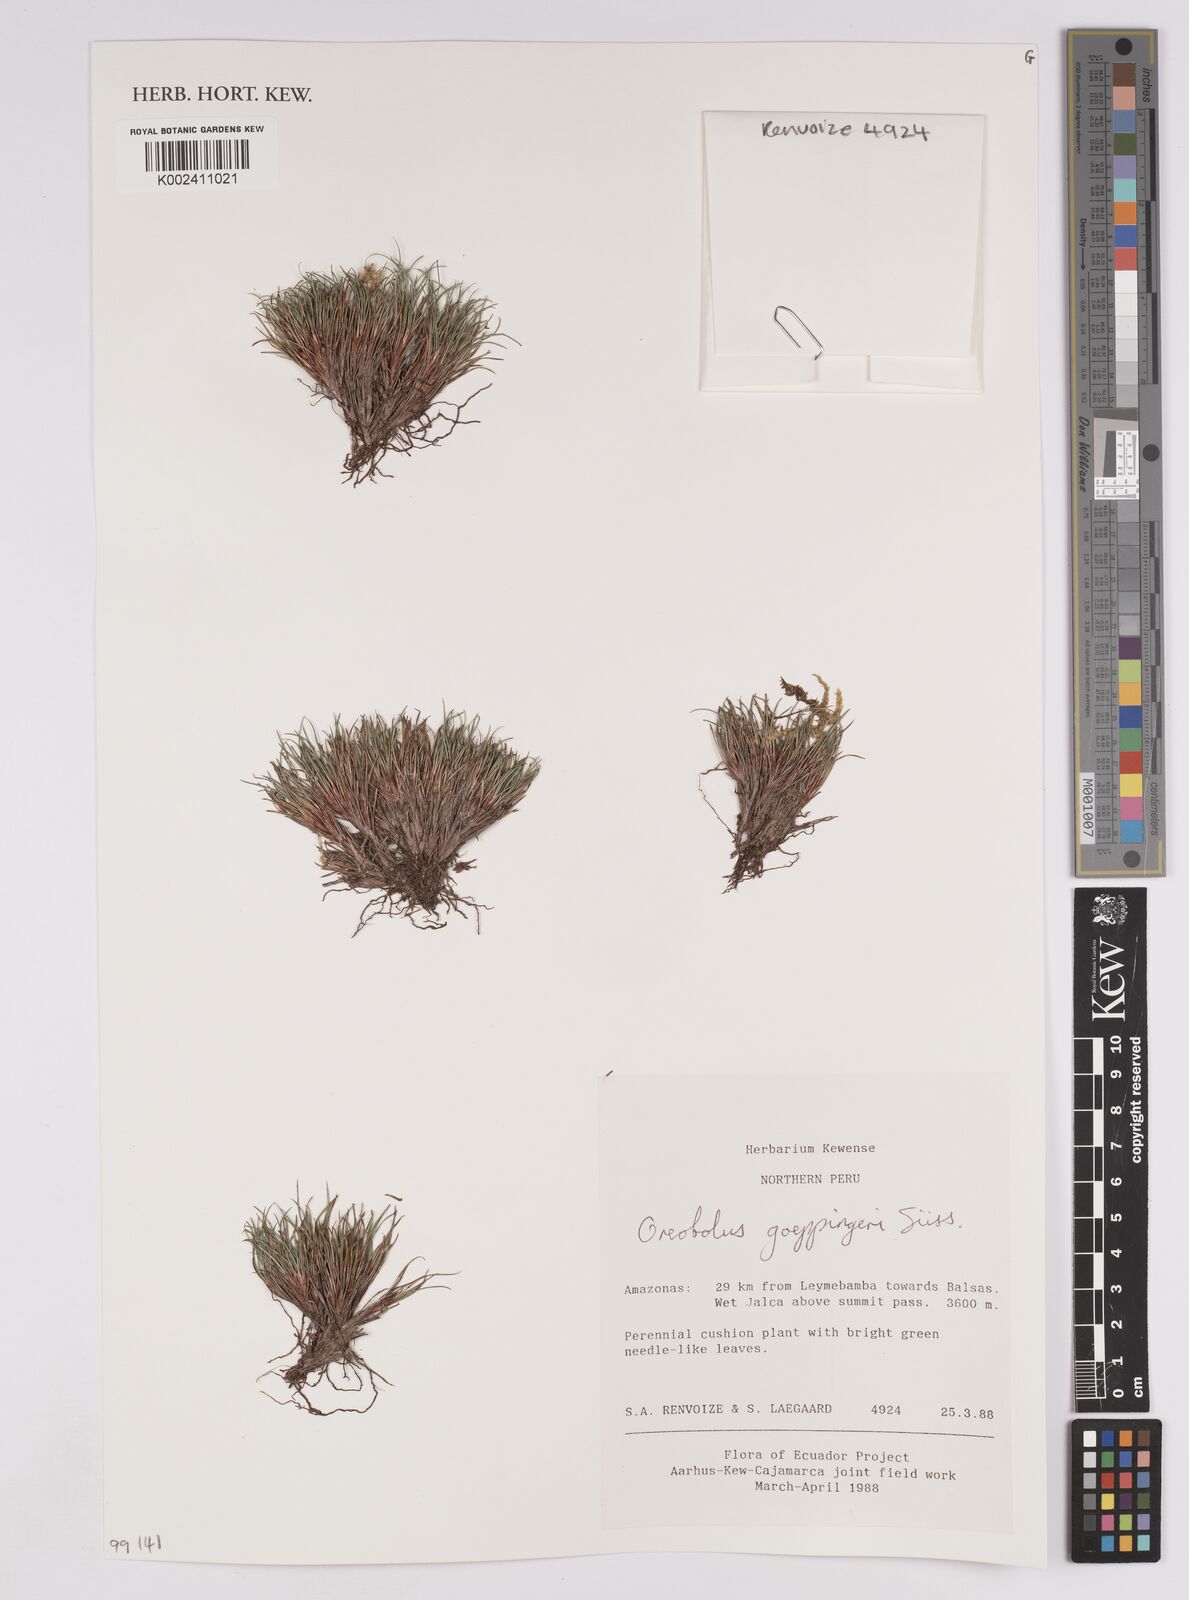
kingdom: Plantae
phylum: Tracheophyta
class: Liliopsida
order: Poales
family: Cyperaceae
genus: Oreobolus
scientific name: Oreobolus goeppingeri
